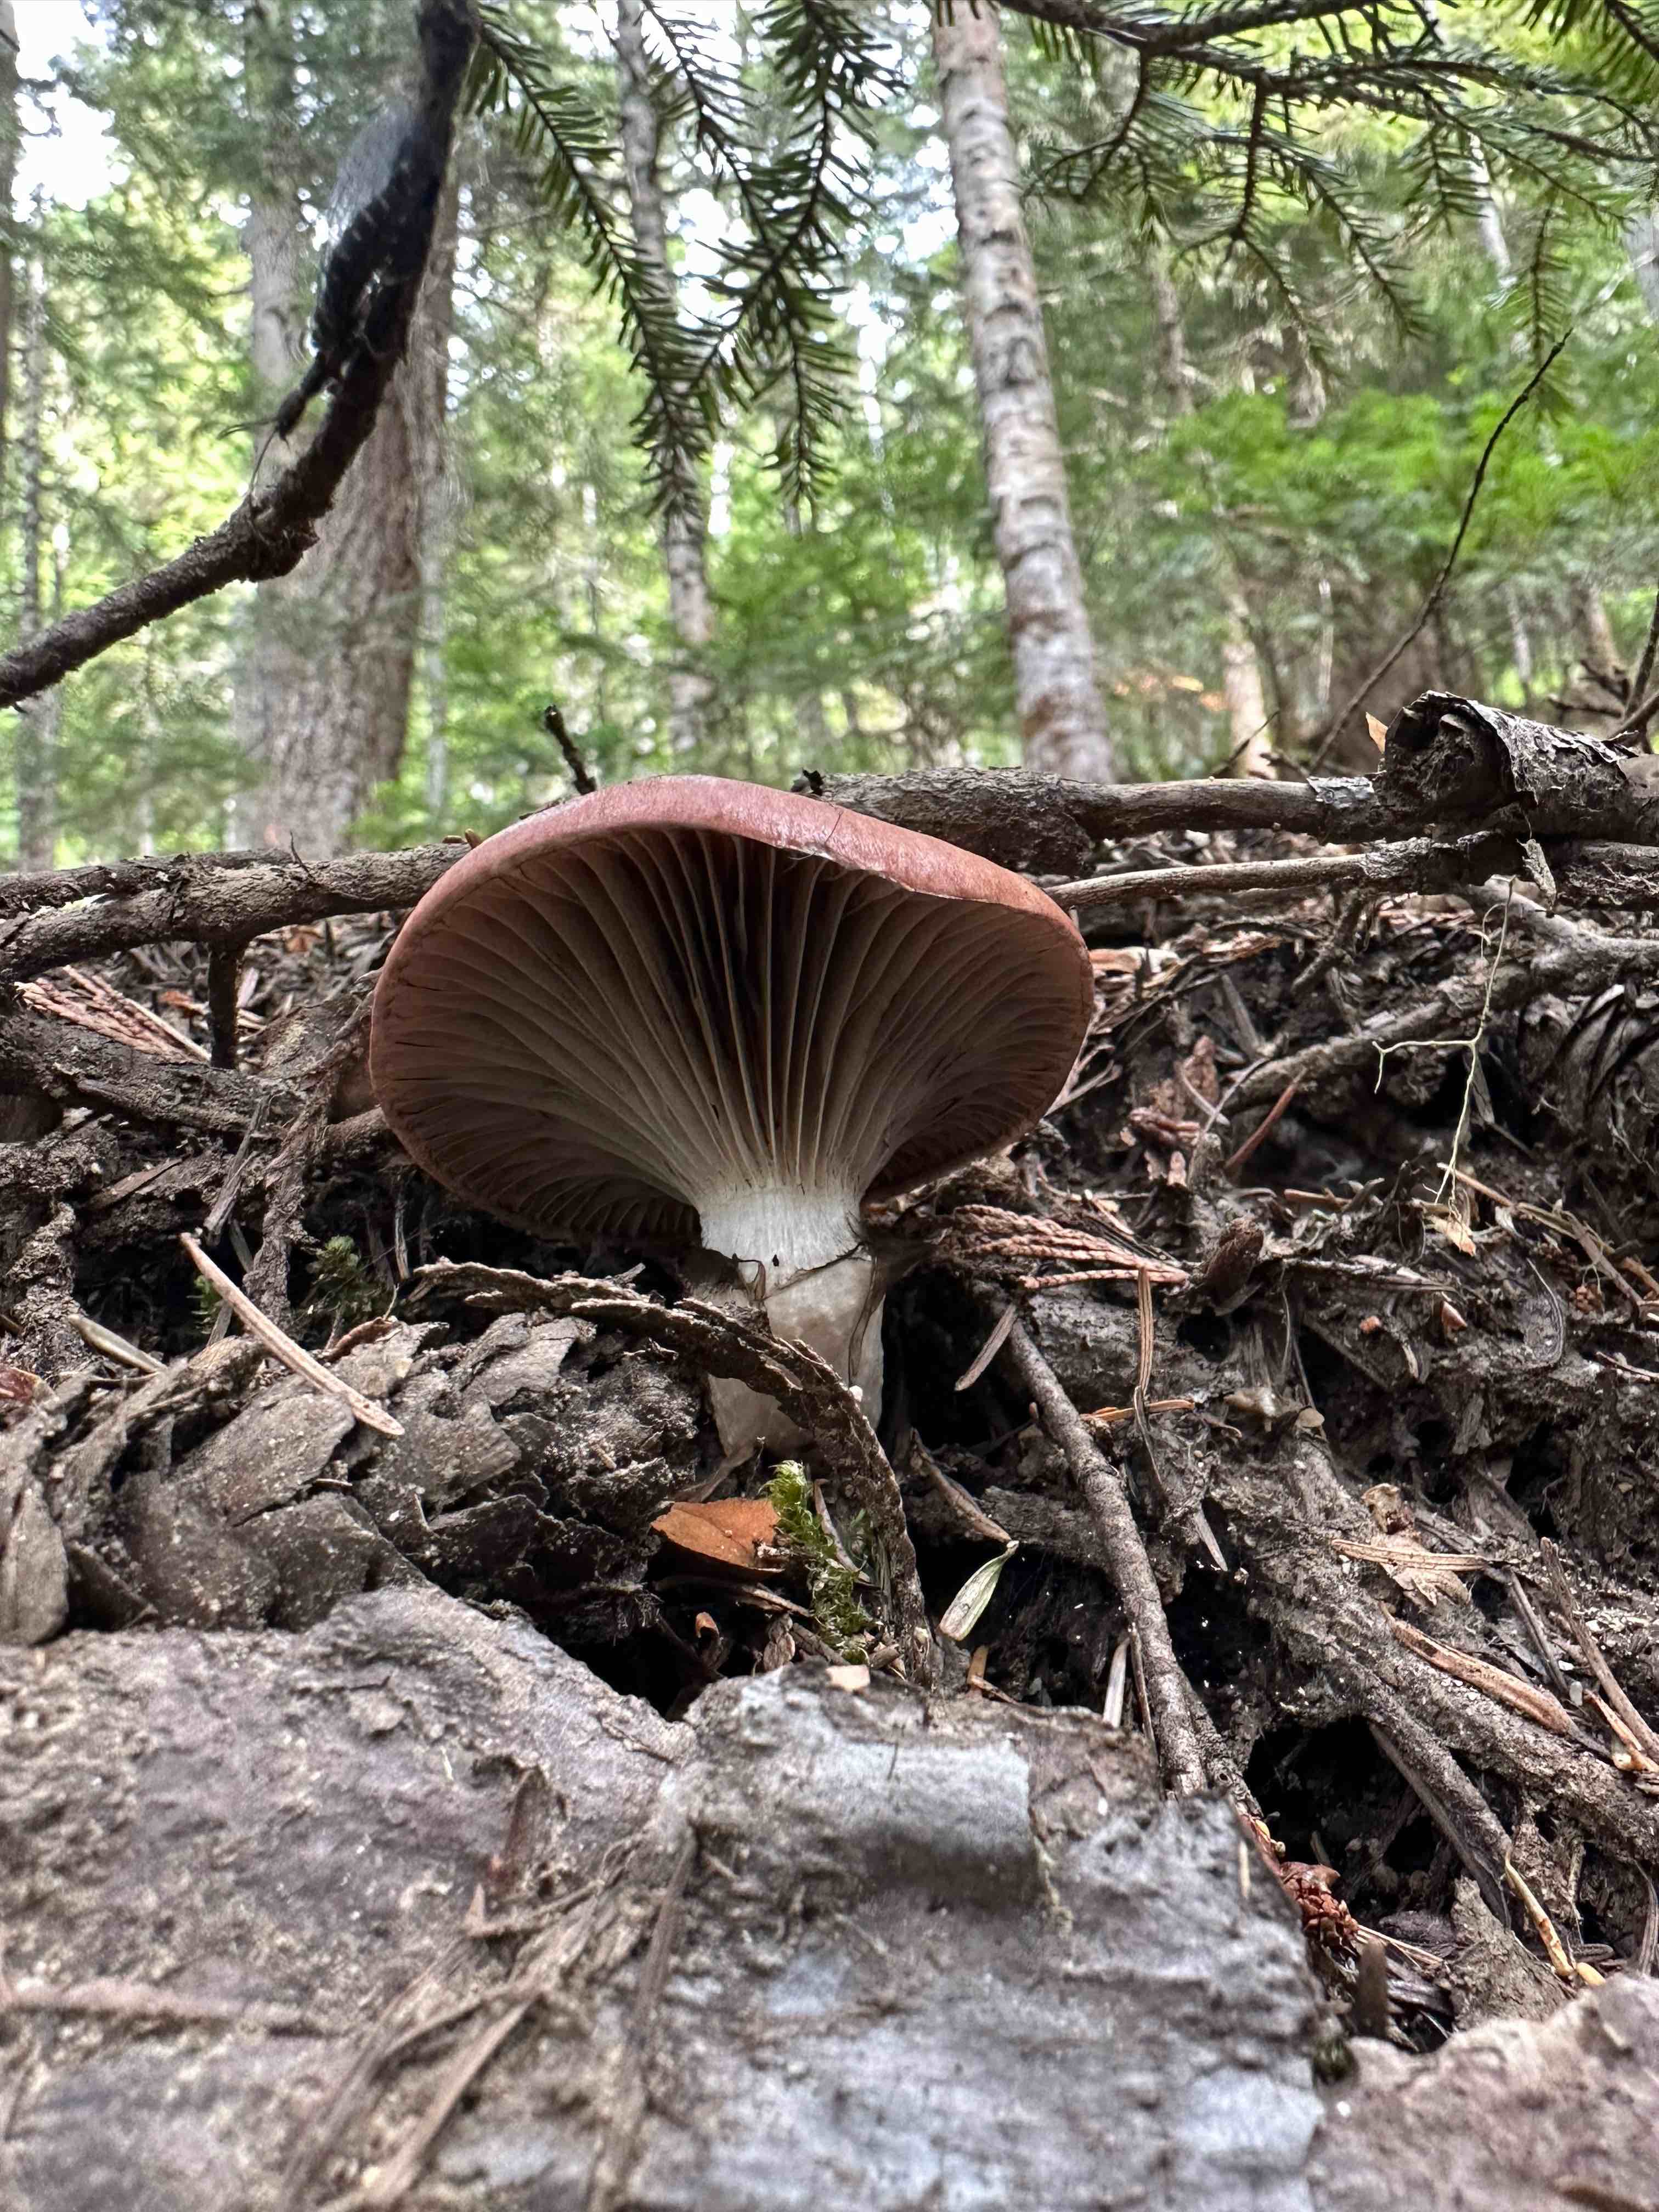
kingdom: Fungi
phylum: Basidiomycota
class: Agaricomycetes
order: Boletales
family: Gomphidiaceae
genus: Gomphidius
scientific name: Gomphidius
